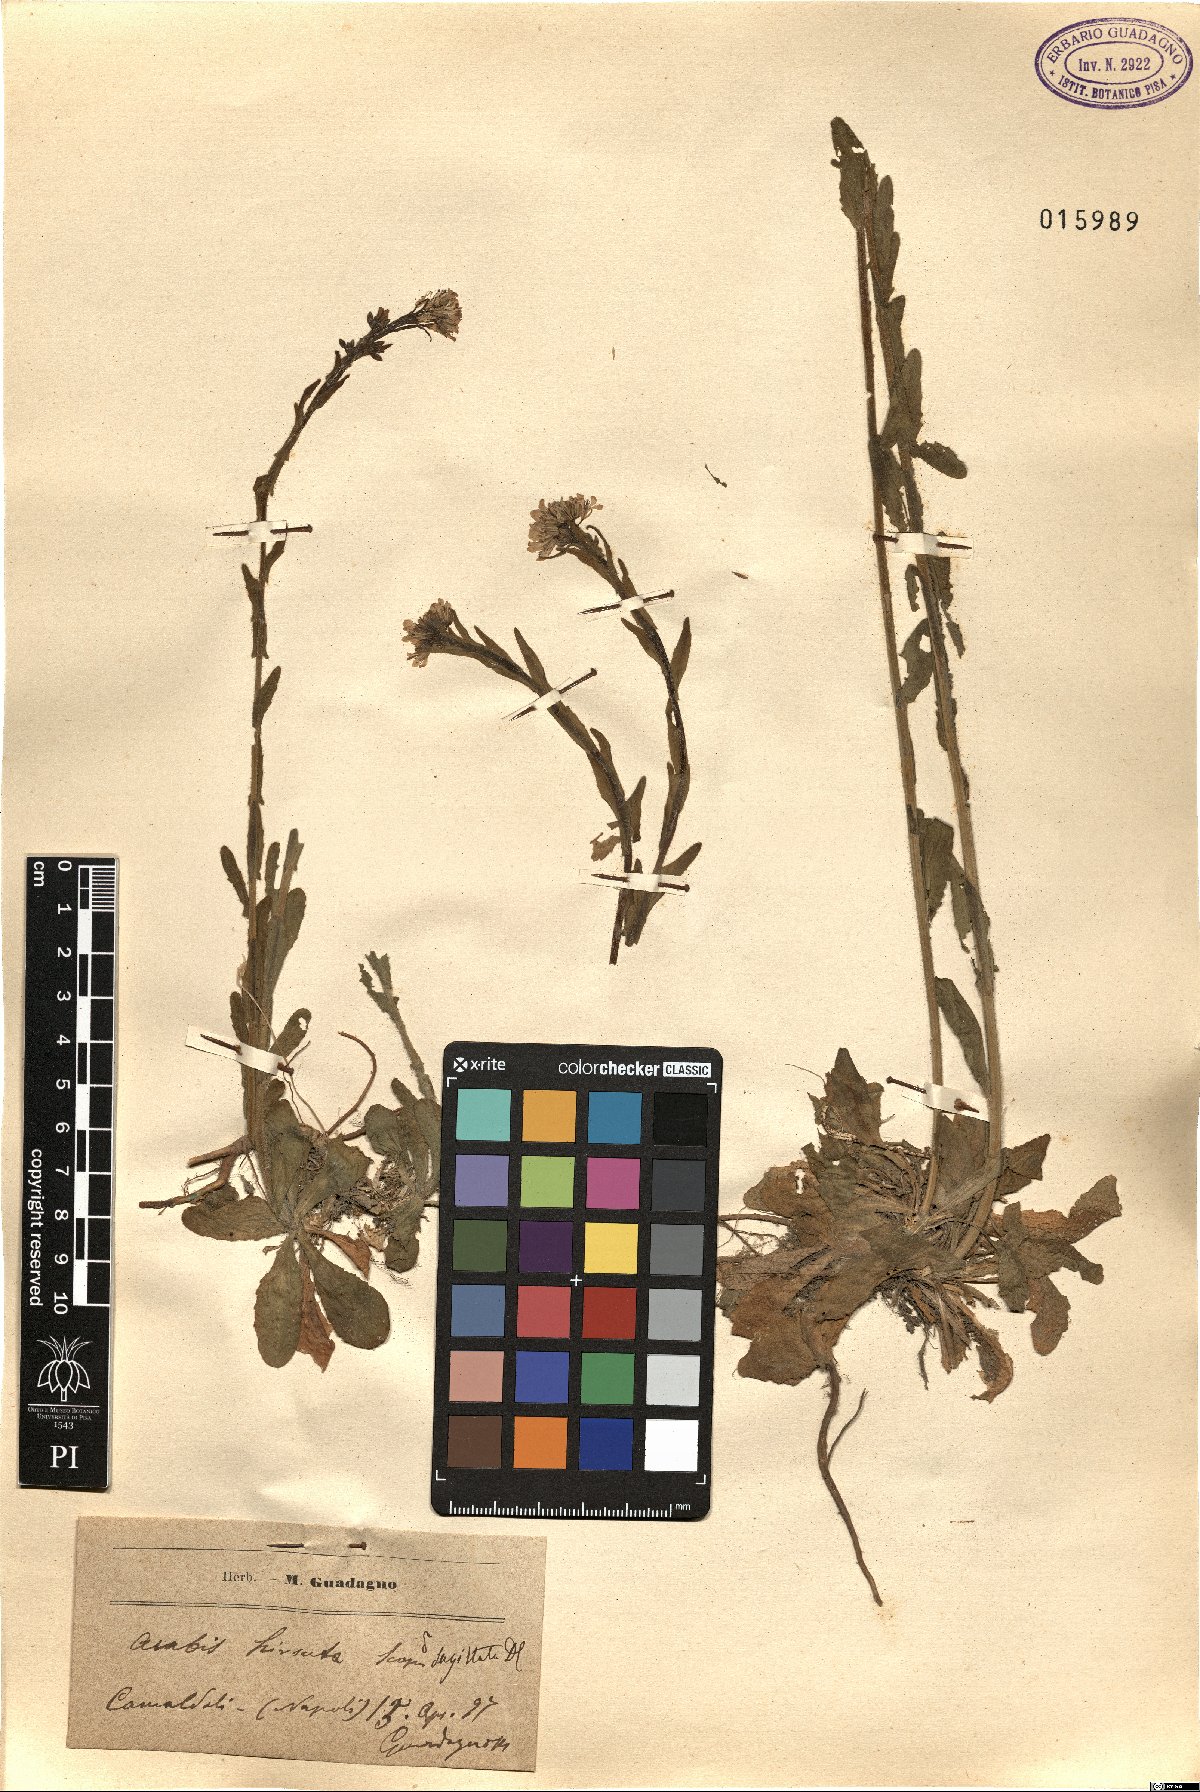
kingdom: Plantae
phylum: Tracheophyta
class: Magnoliopsida
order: Brassicales
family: Brassicaceae
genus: Arabis
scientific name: Arabis sagittata
